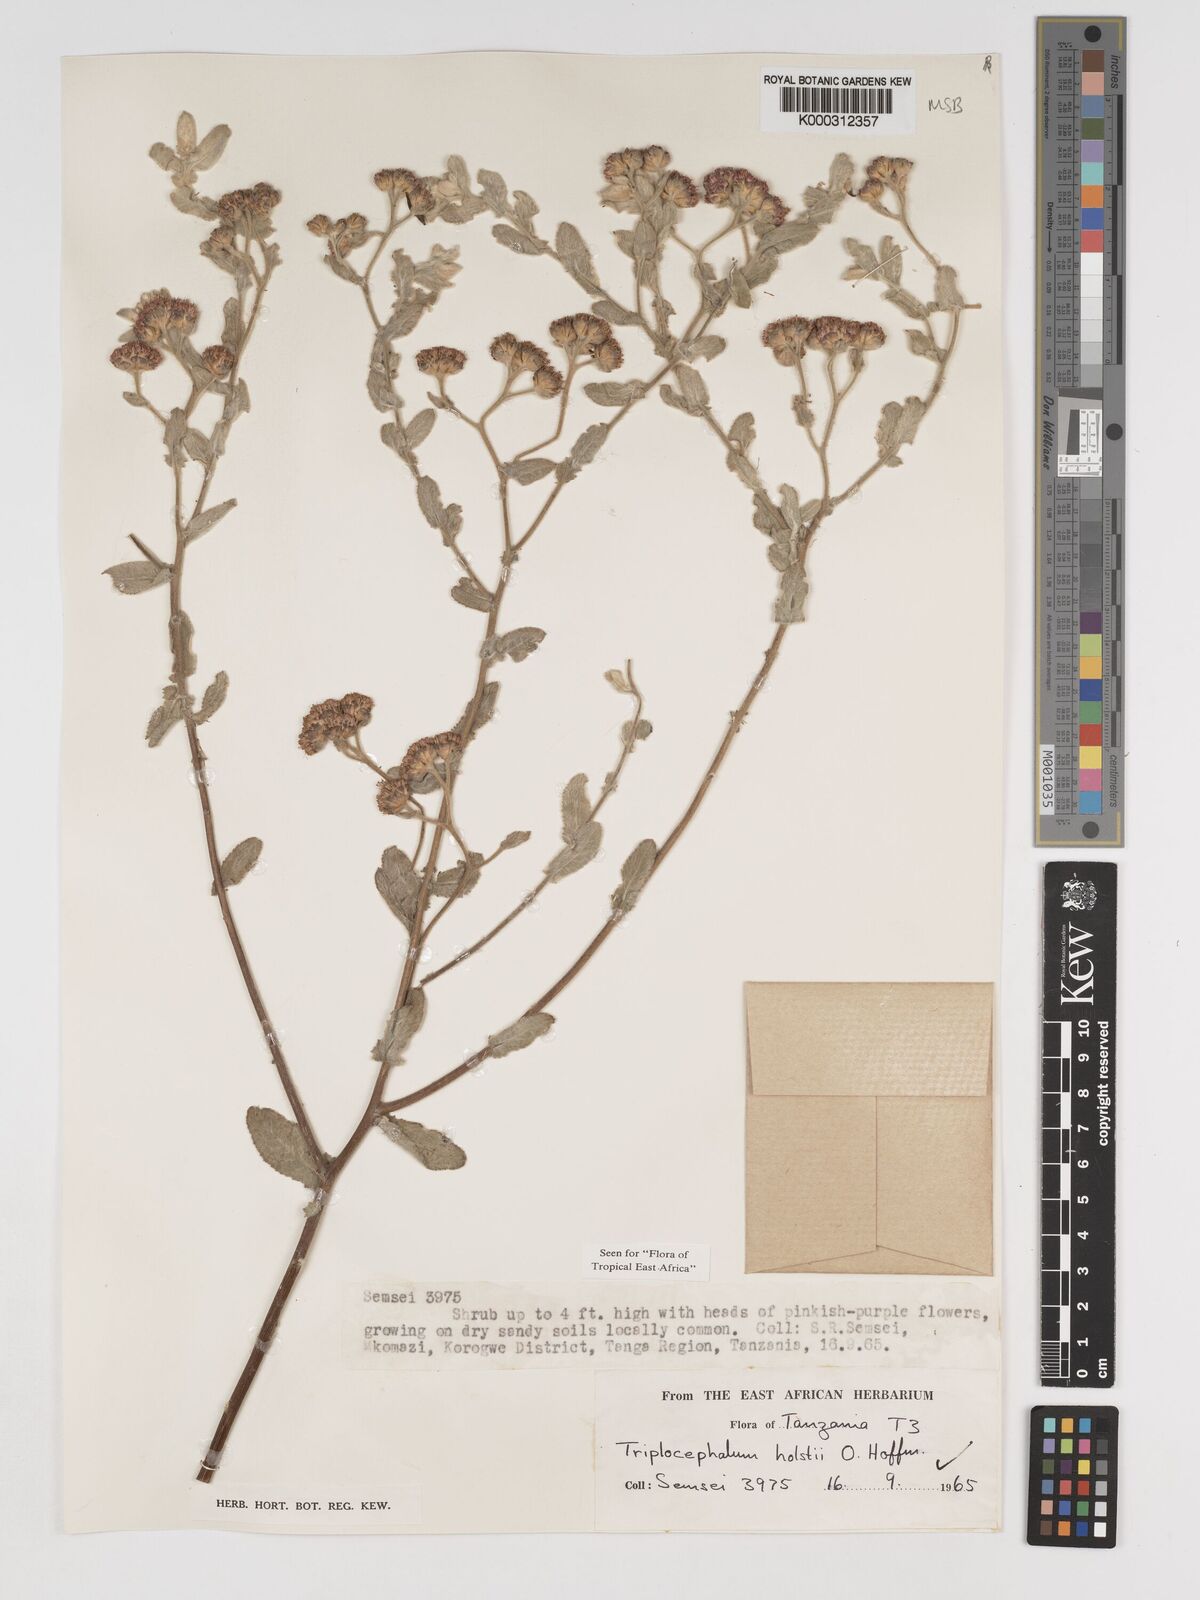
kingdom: Plantae
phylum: Tracheophyta
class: Magnoliopsida
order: Asterales
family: Asteraceae
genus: Triplocephalum
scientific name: Triplocephalum holstii
